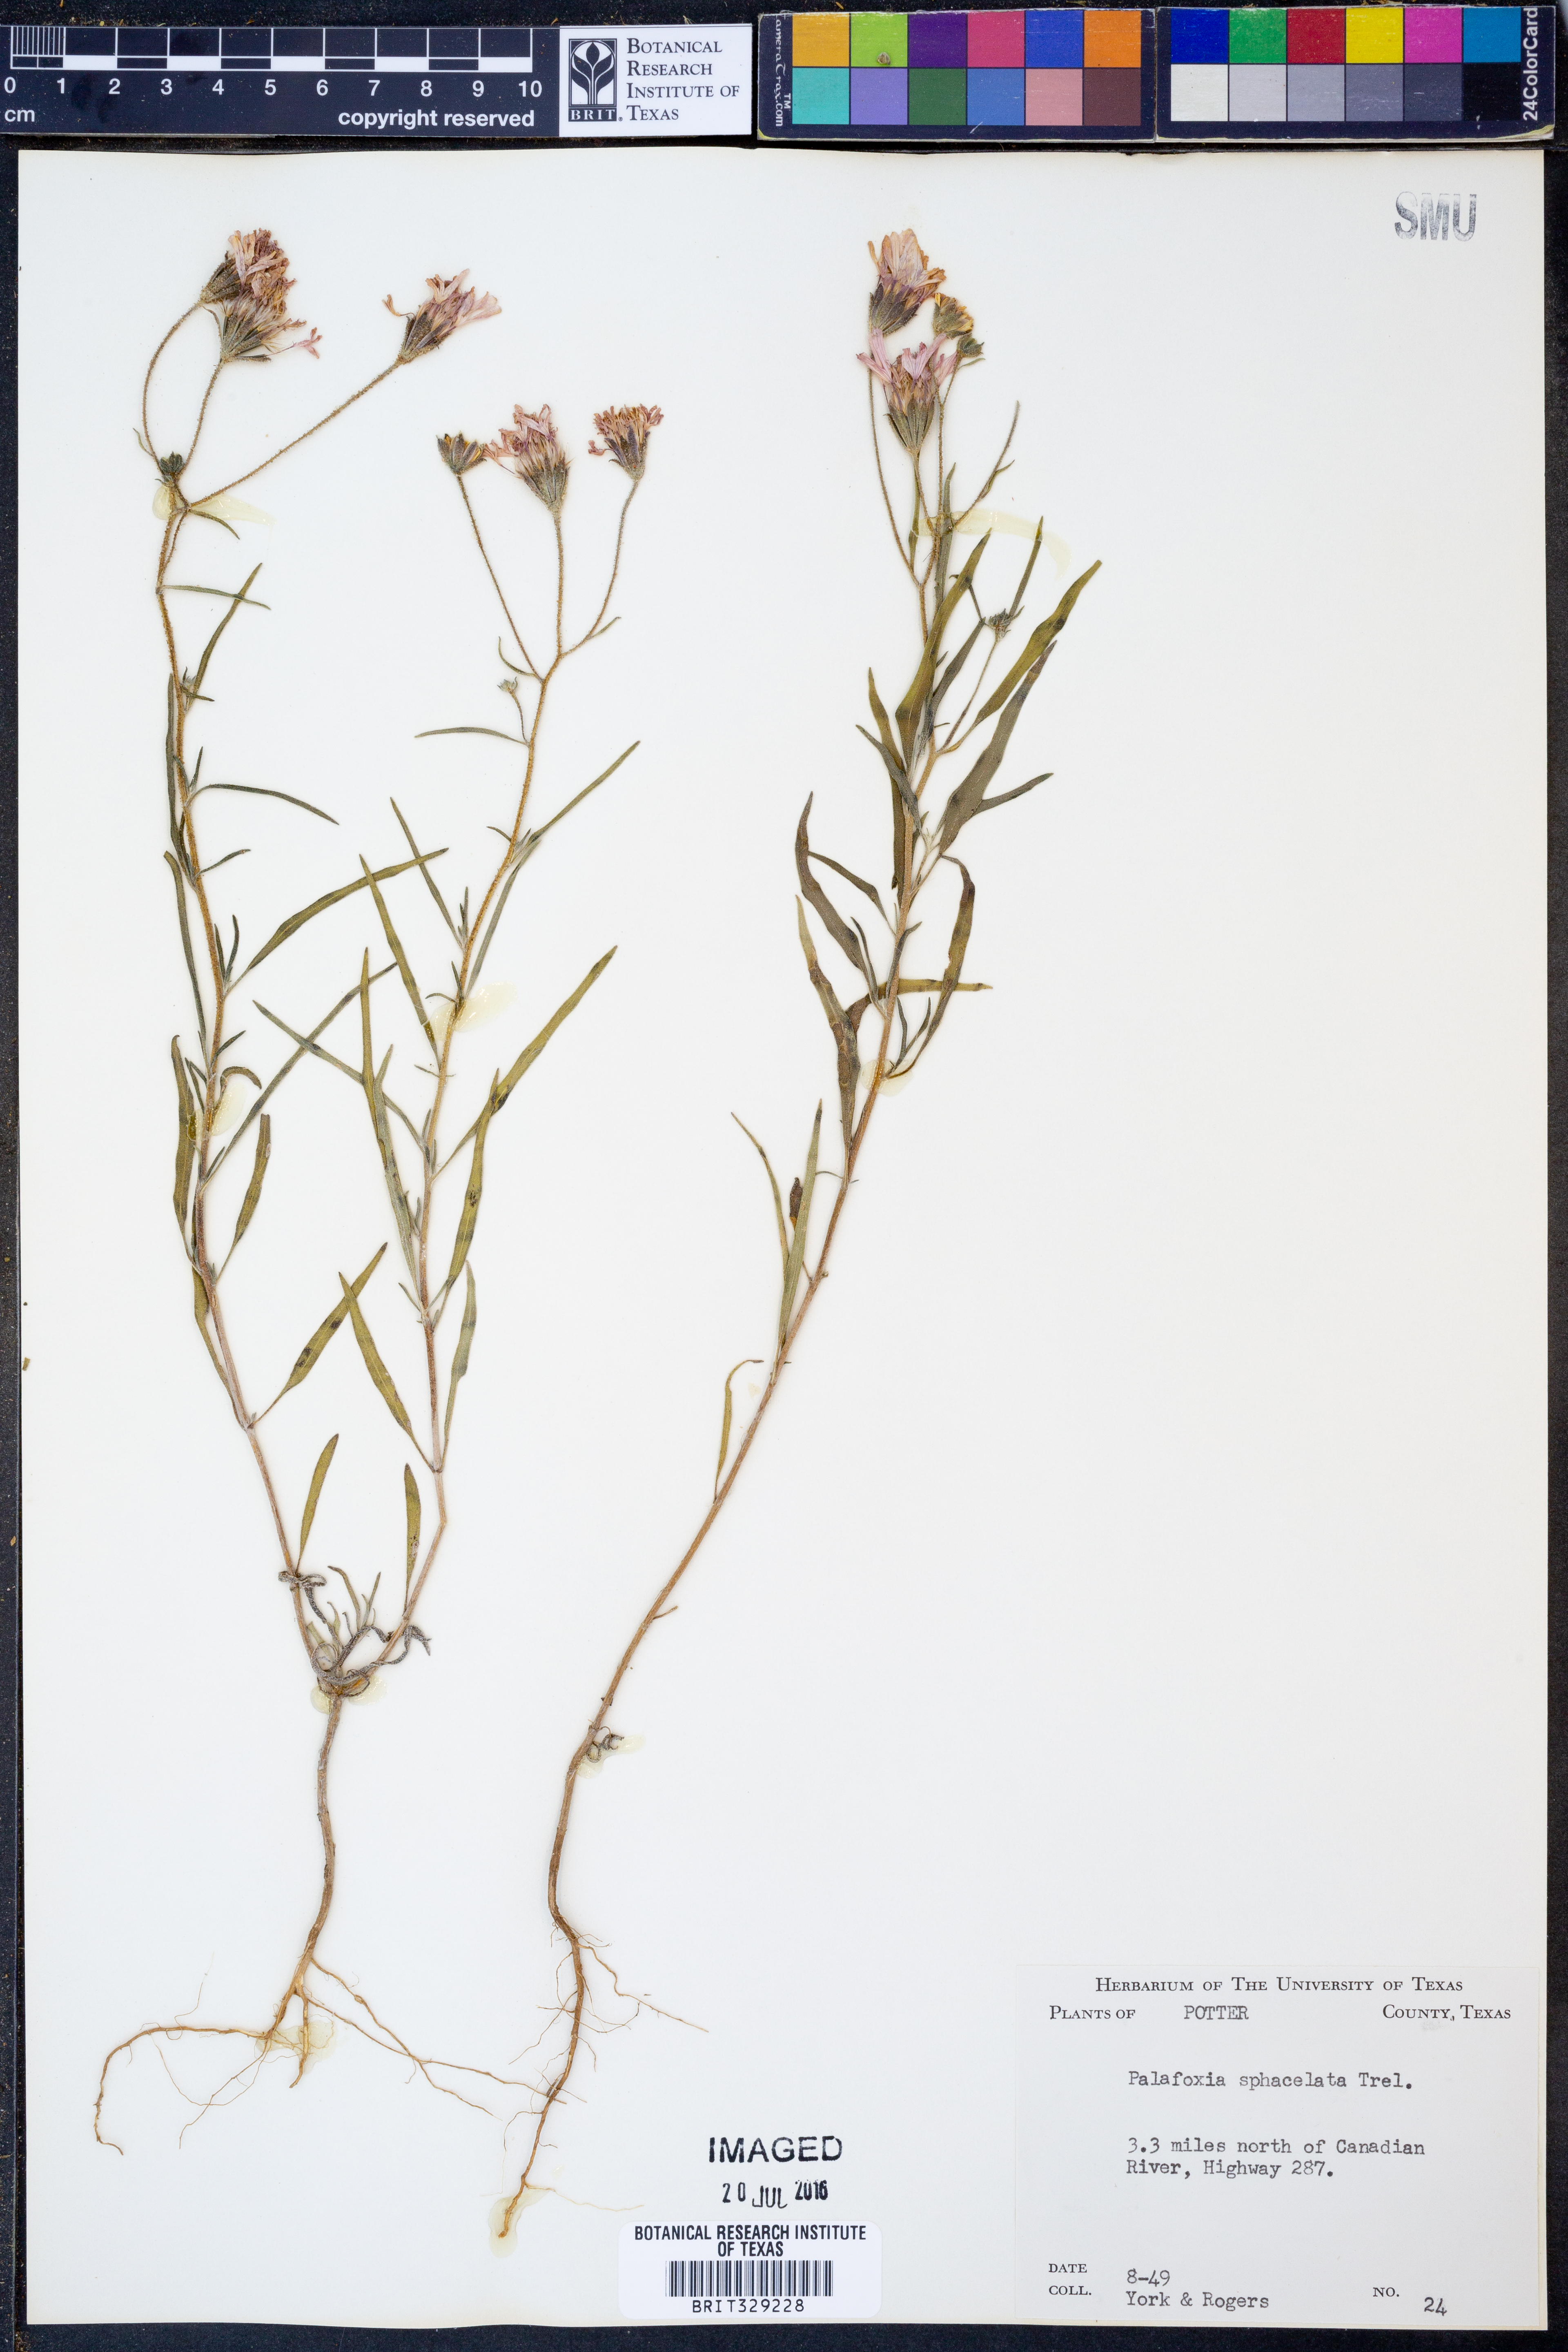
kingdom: Plantae
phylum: Tracheophyta
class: Magnoliopsida
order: Asterales
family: Asteraceae
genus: Palafoxia
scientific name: Palafoxia sphacelata
